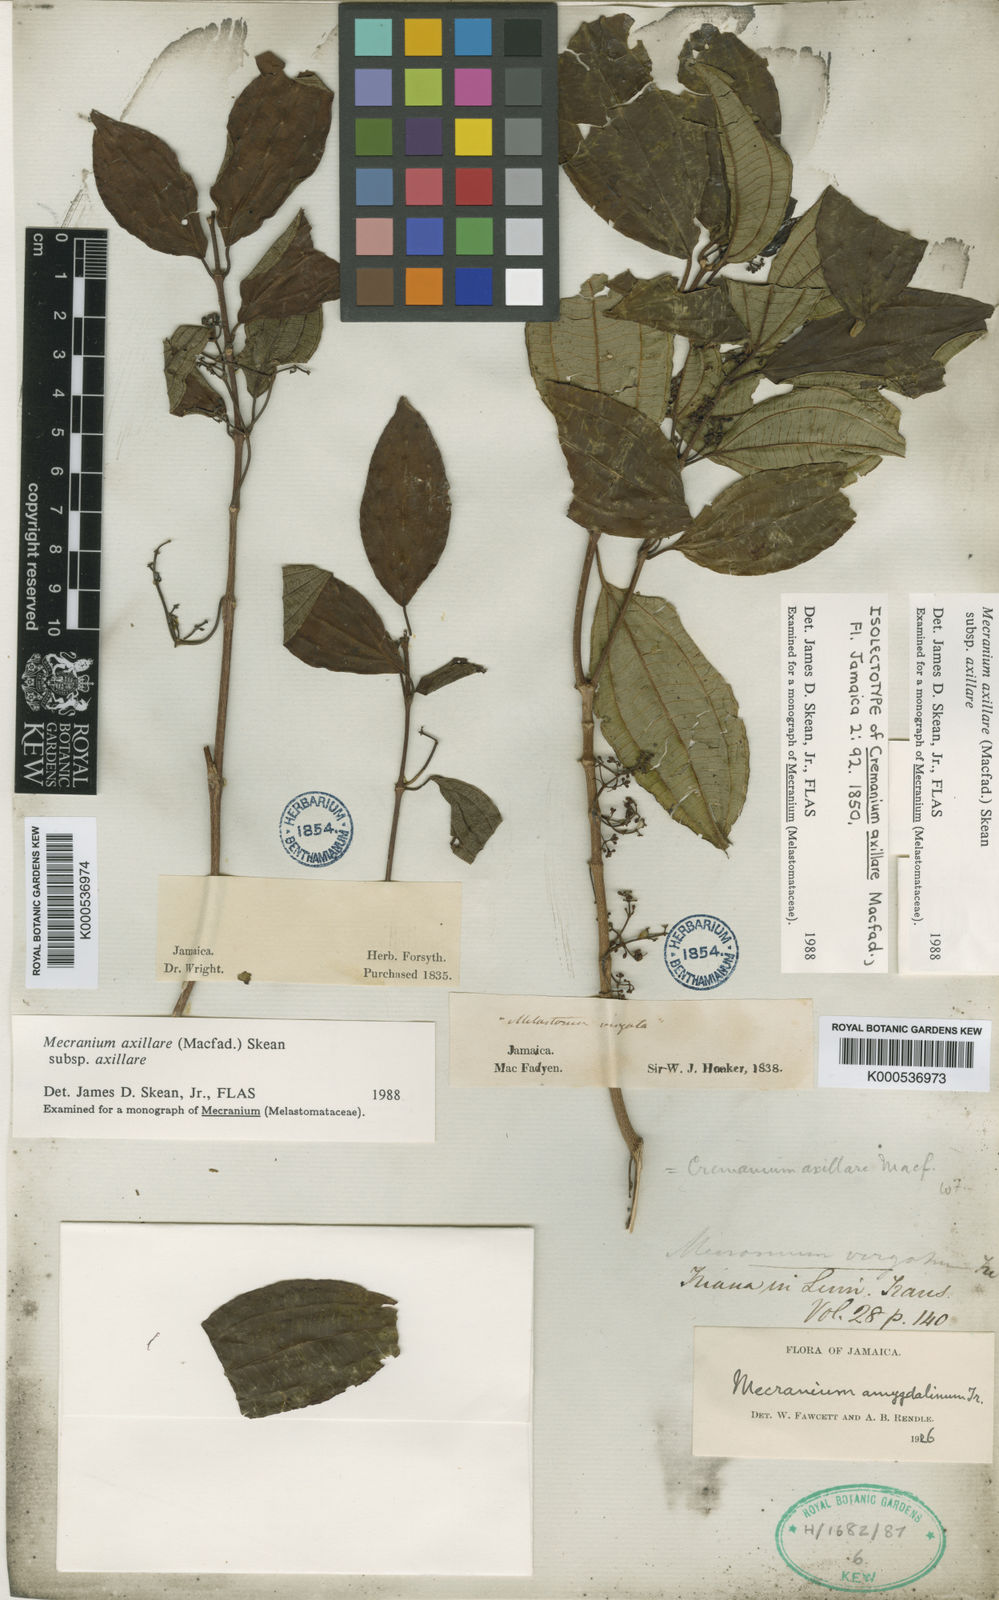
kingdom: Plantae
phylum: Tracheophyta
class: Magnoliopsida
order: Myrtales
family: Melastomataceae
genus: Miconia
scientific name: Miconia axillaris
